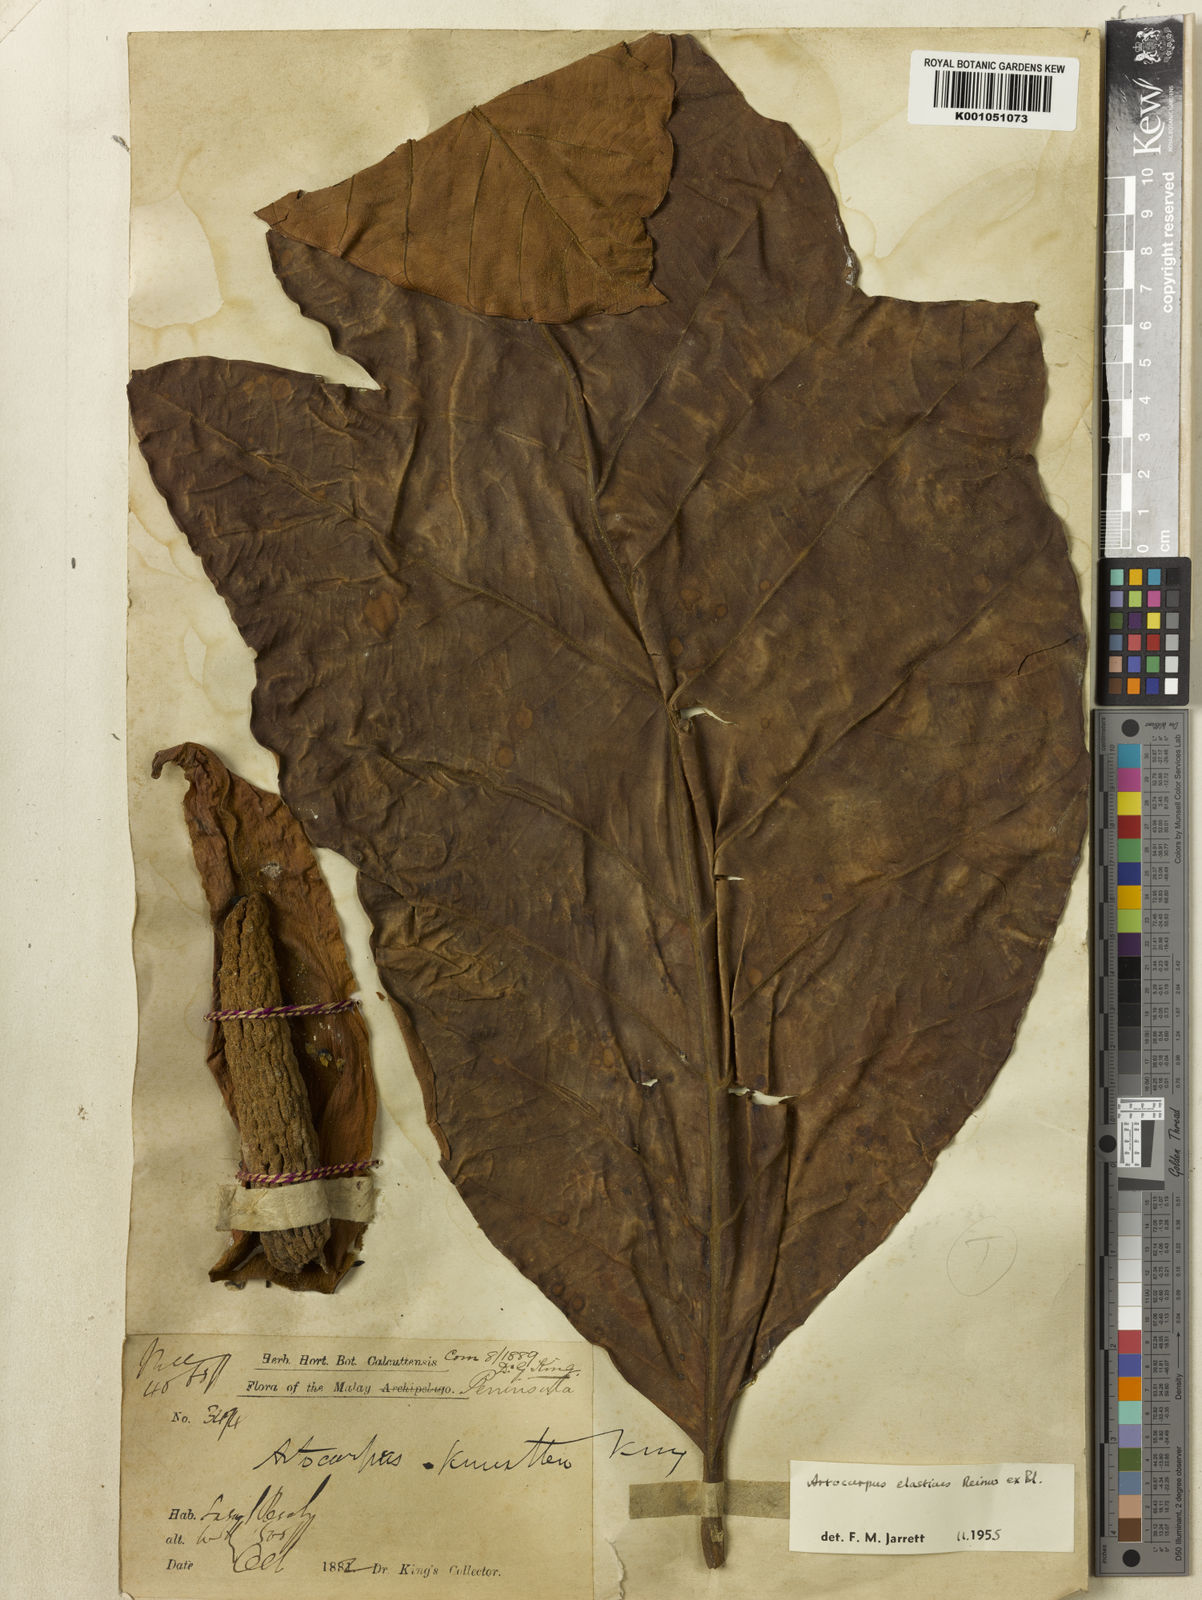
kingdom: Plantae
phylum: Tracheophyta
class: Magnoliopsida
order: Rosales
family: Moraceae
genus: Artocarpus
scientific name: Artocarpus
